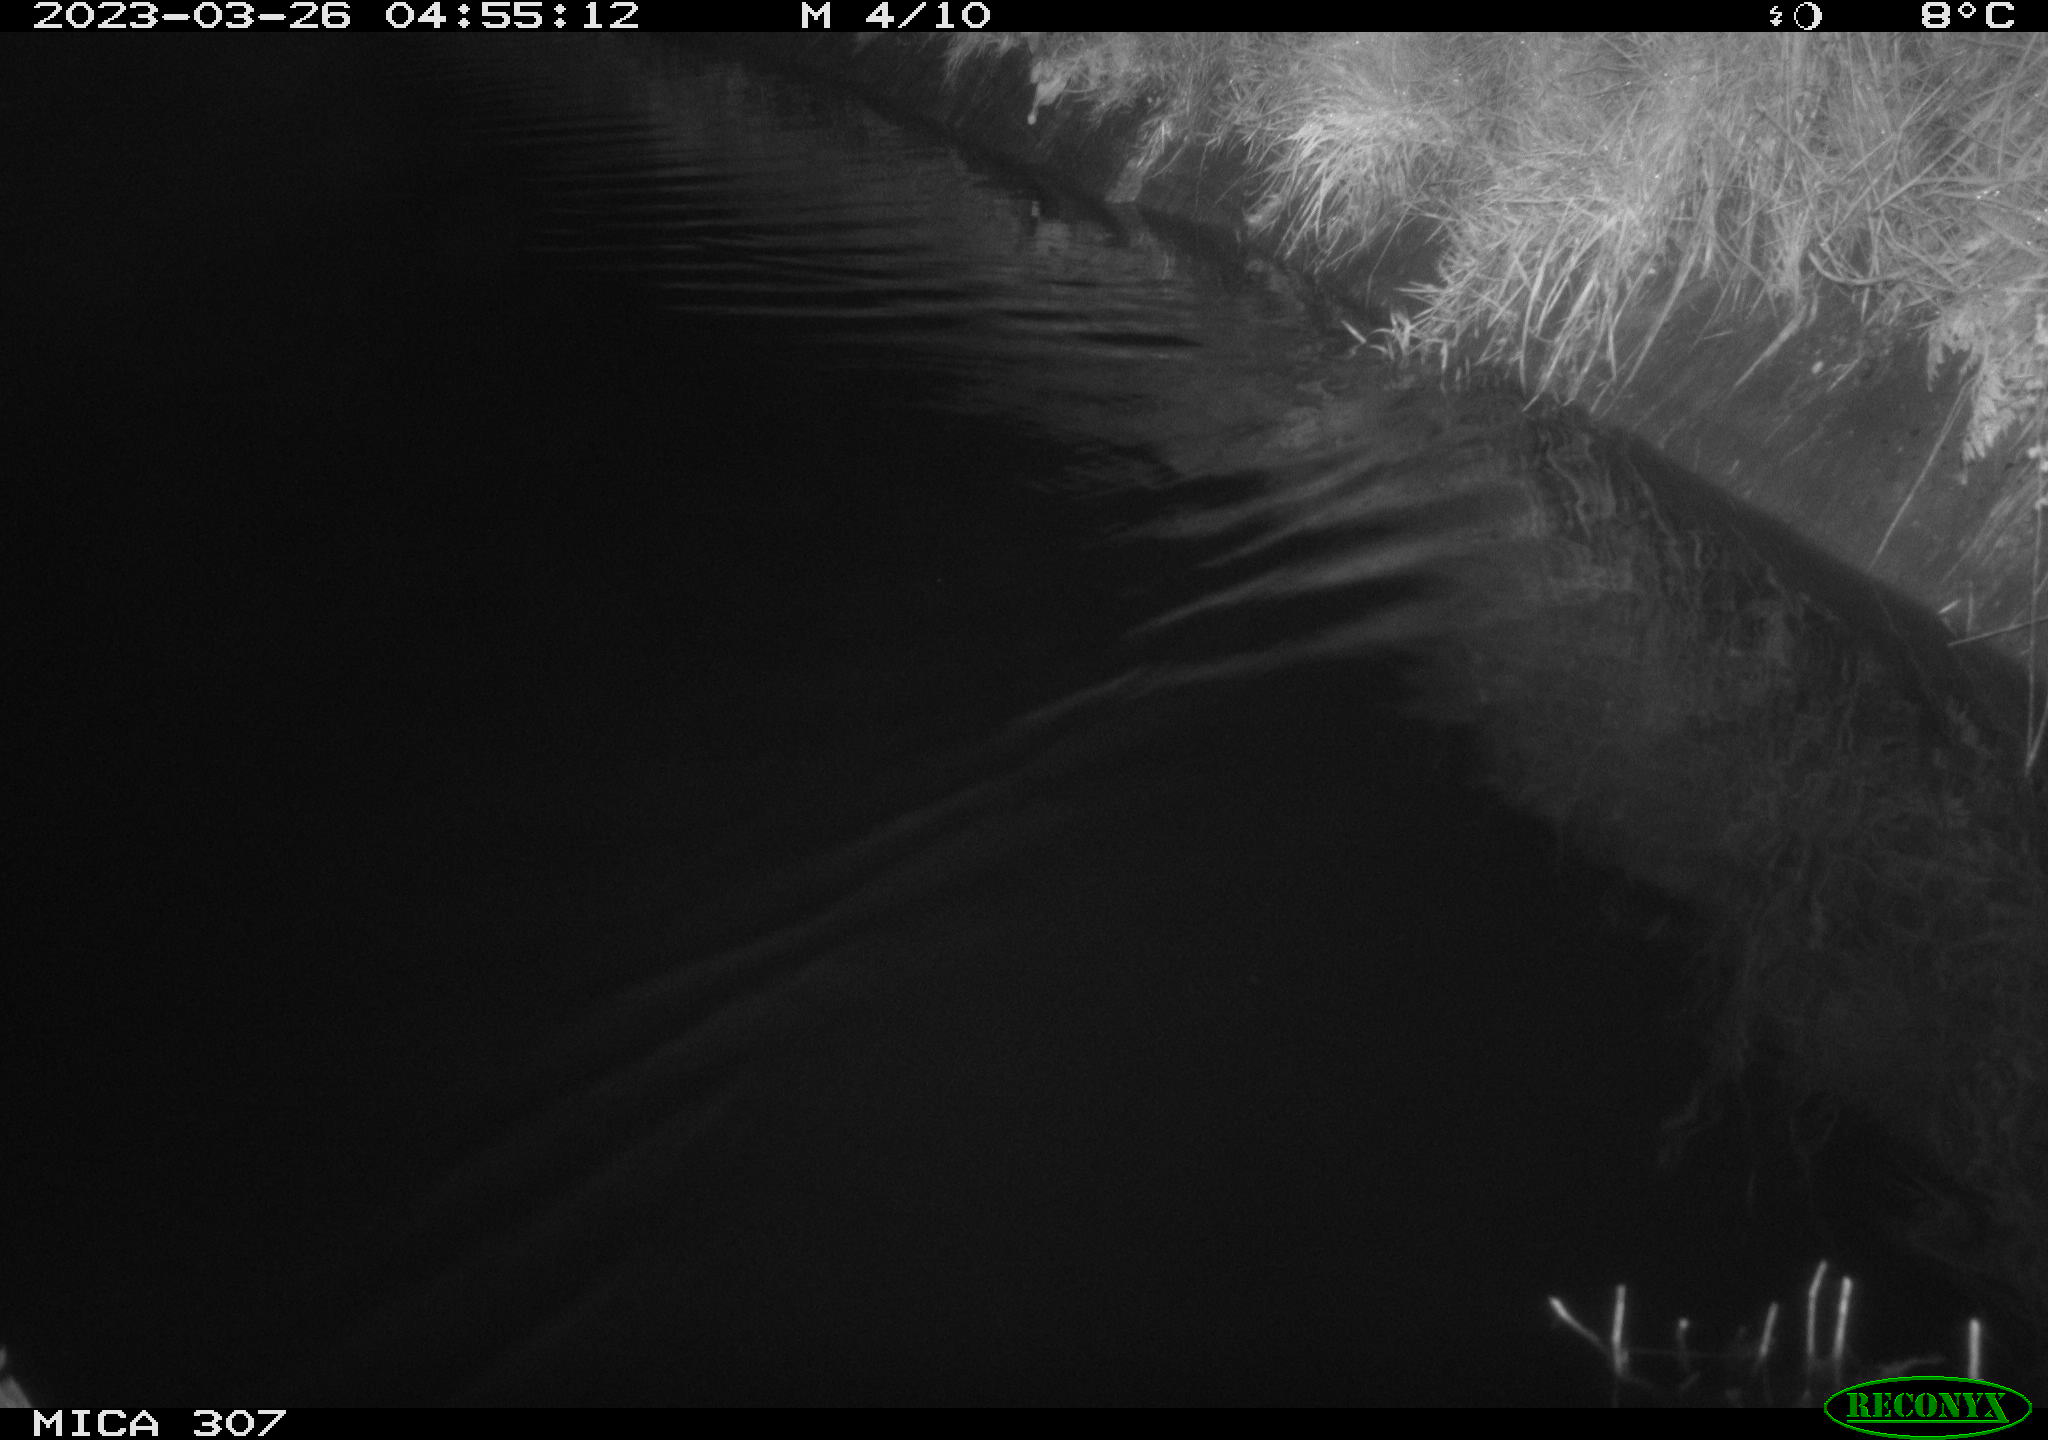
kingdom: Animalia
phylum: Chordata
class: Aves
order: Anseriformes
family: Anatidae
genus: Anas
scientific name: Anas
